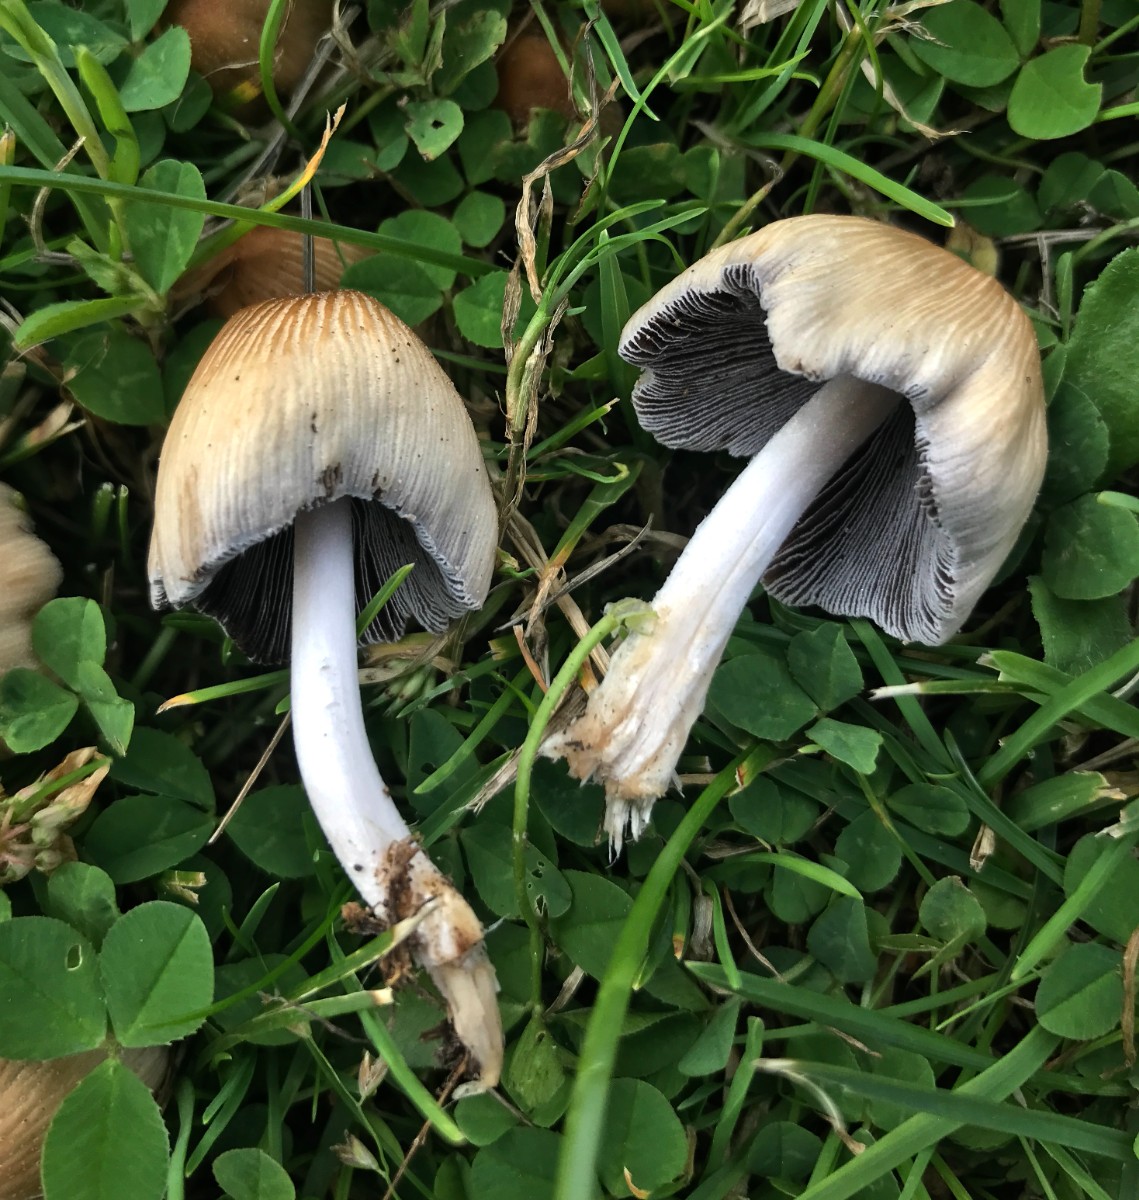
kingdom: Fungi
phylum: Basidiomycota
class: Agaricomycetes
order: Agaricales
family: Psathyrellaceae
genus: Coprinellus
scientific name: Coprinellus micaceus
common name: glimmer-blækhat
